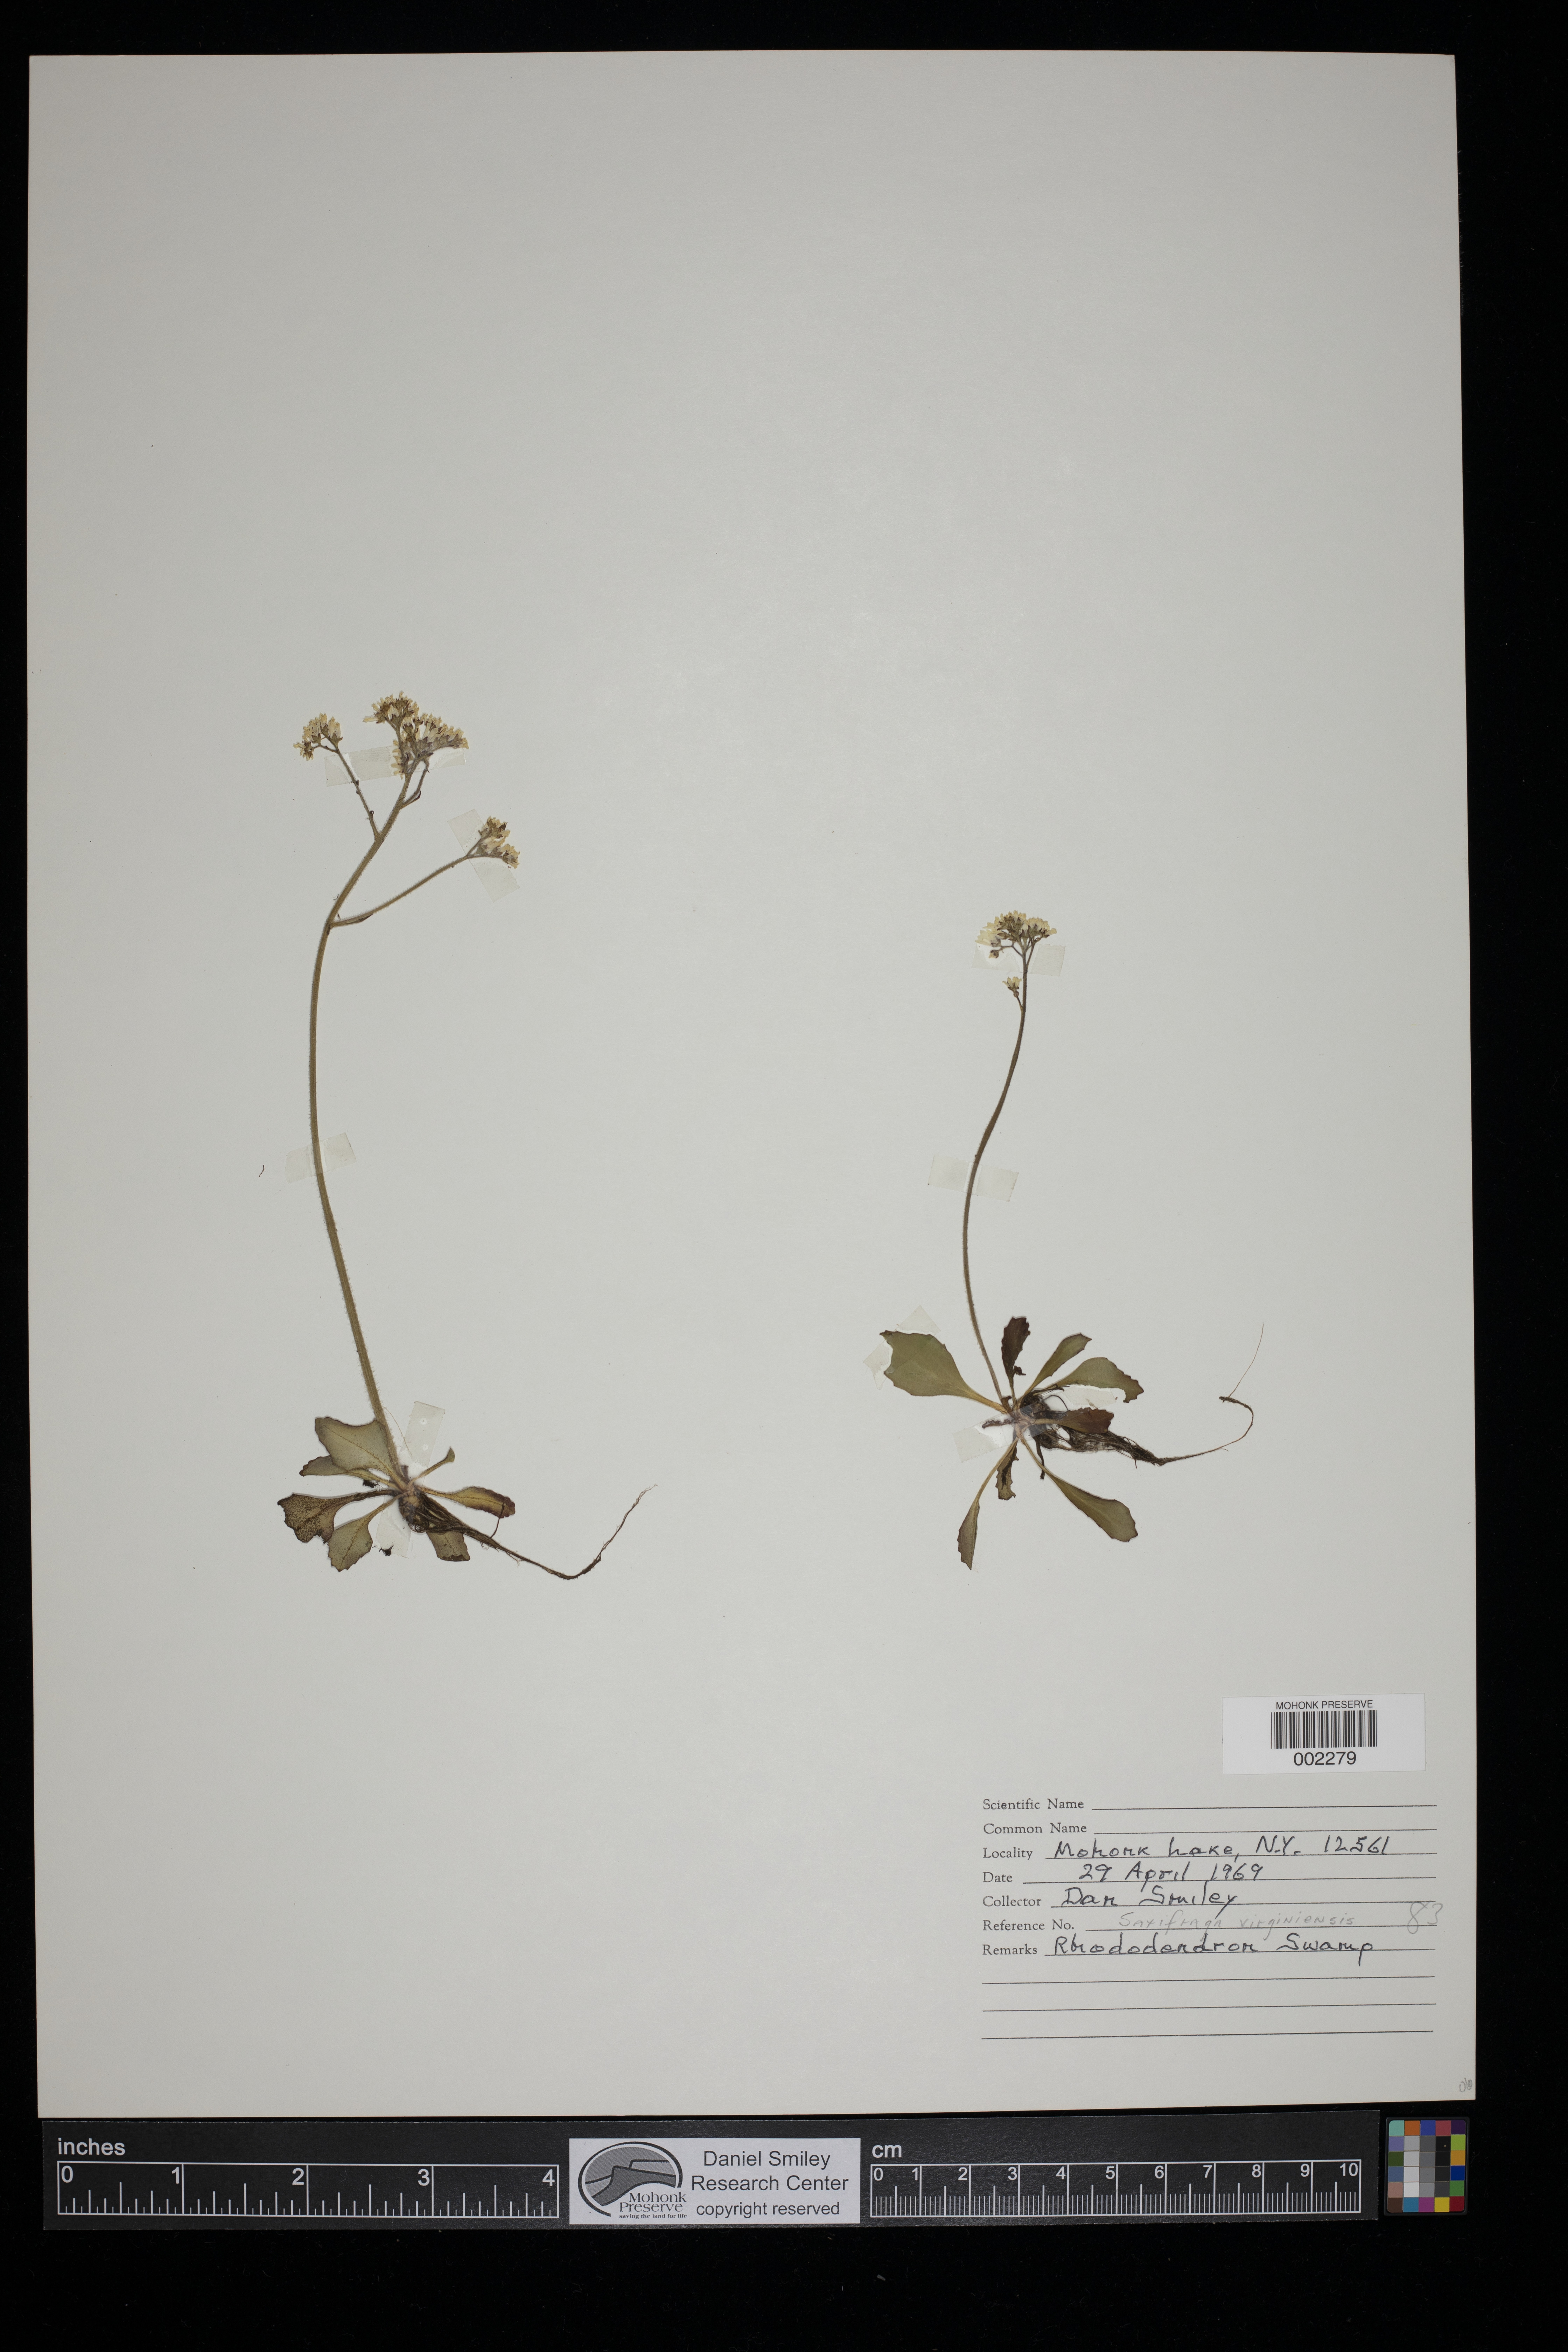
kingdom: Plantae
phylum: Tracheophyta
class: Magnoliopsida
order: Saxifragales
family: Saxifragaceae
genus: Micranthes
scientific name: Micranthes virginiensis
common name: Early saxifrage
